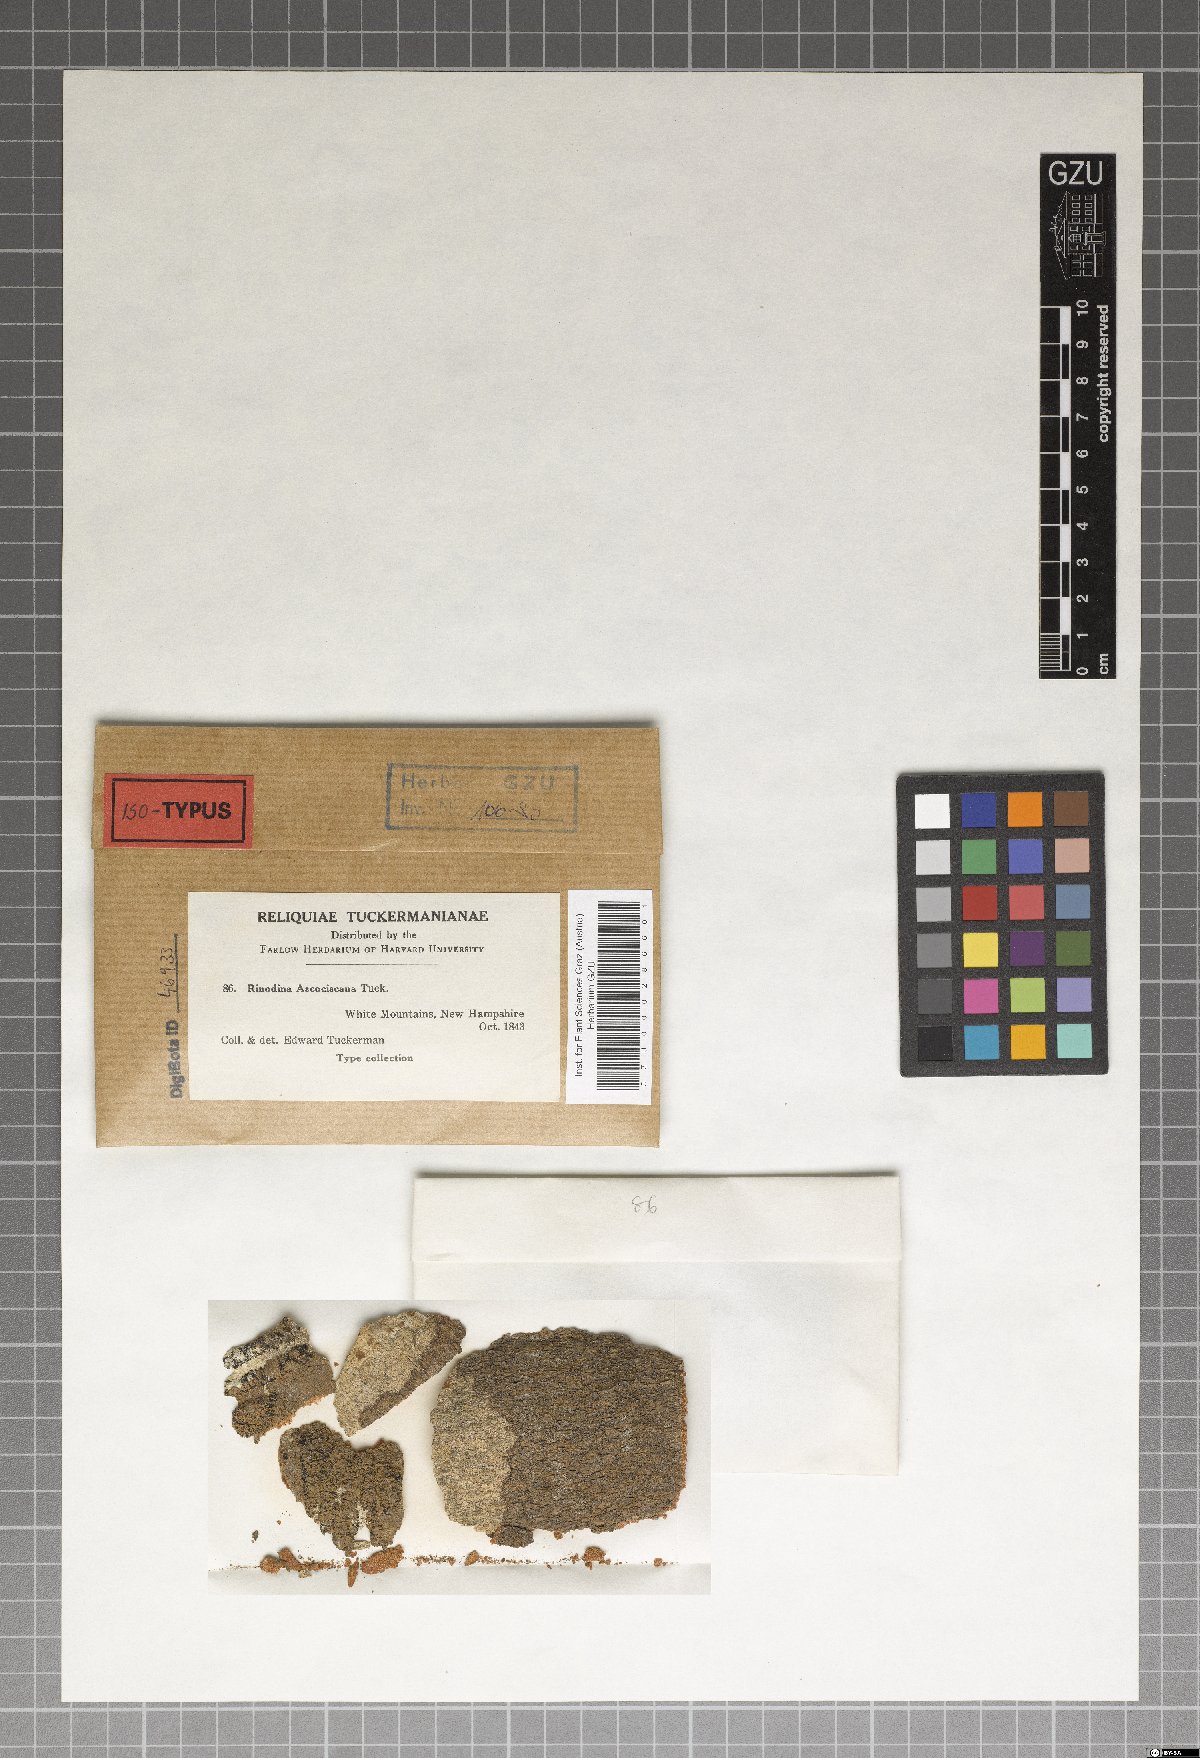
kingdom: Fungi
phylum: Ascomycota
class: Lecanoromycetes
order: Peltigerales
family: Pannariaceae
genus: Psoroma
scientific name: Psoroma
